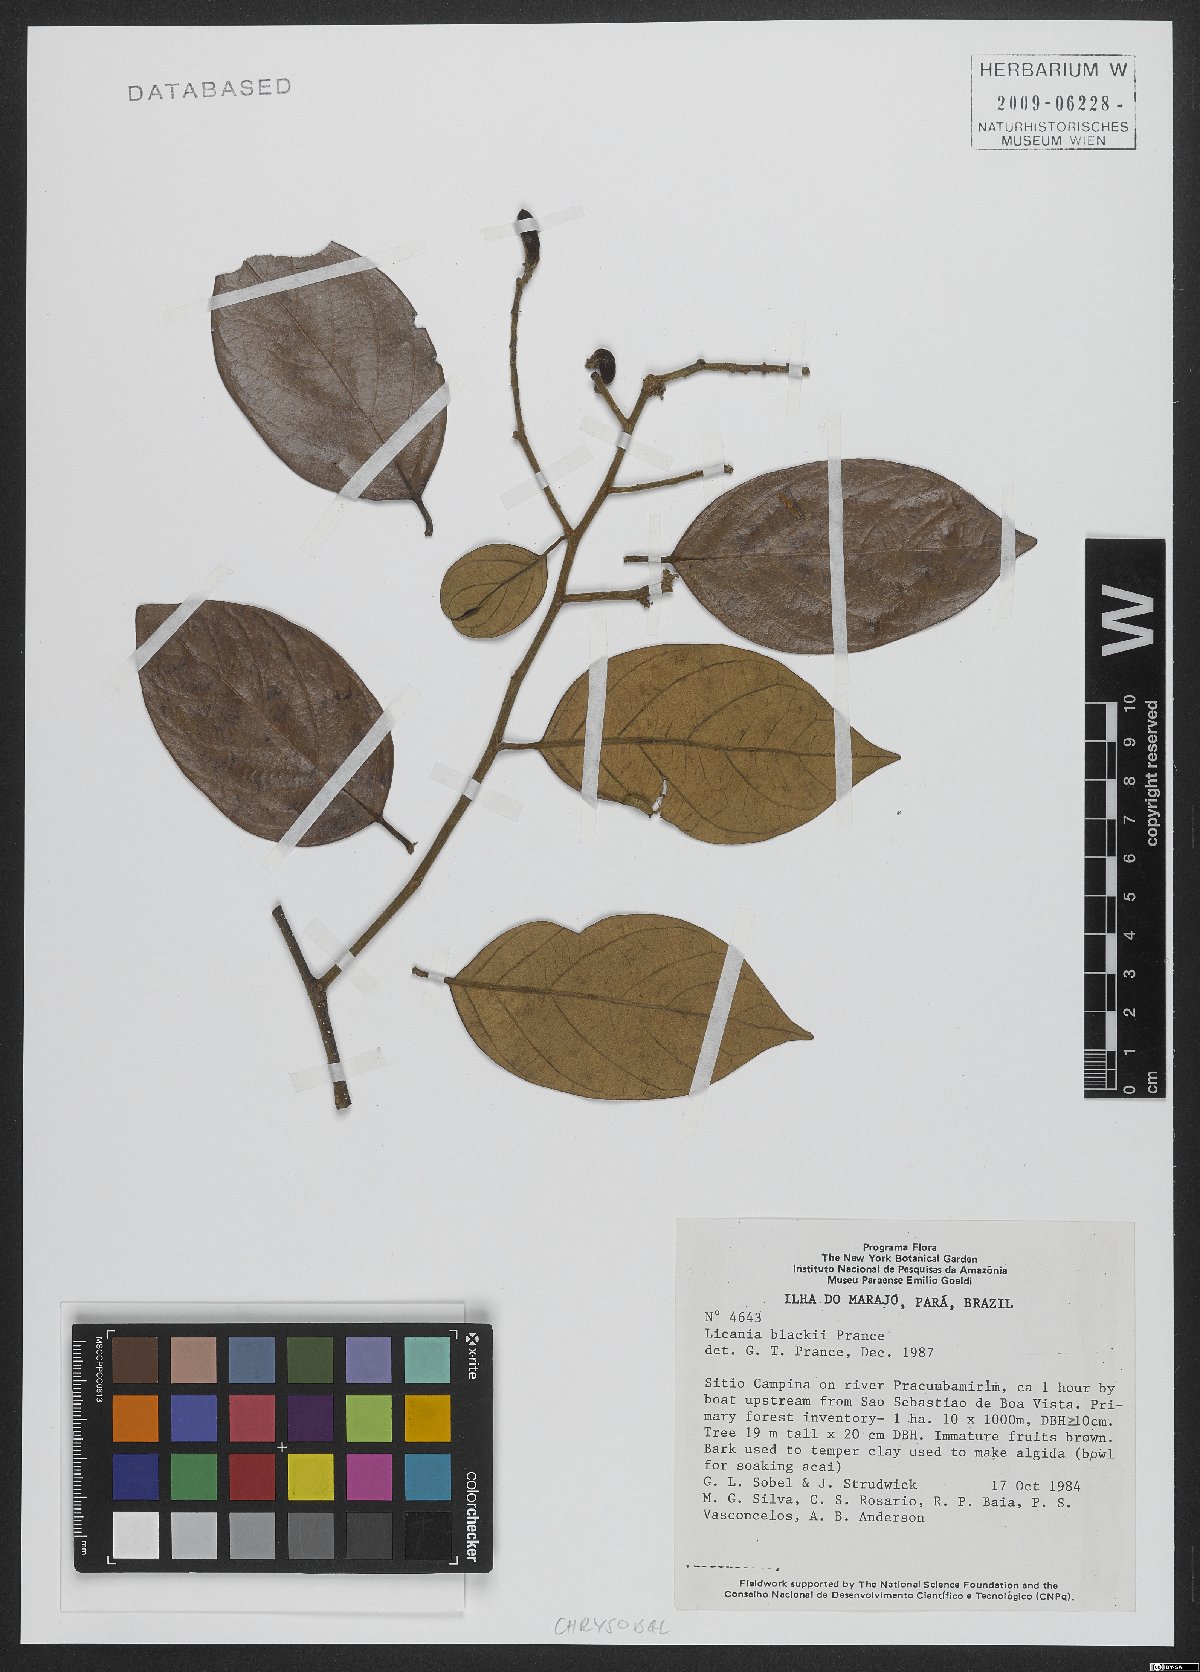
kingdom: Plantae
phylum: Tracheophyta
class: Magnoliopsida
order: Malpighiales
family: Chrysobalanaceae
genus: Licania
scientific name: Licania blackii
